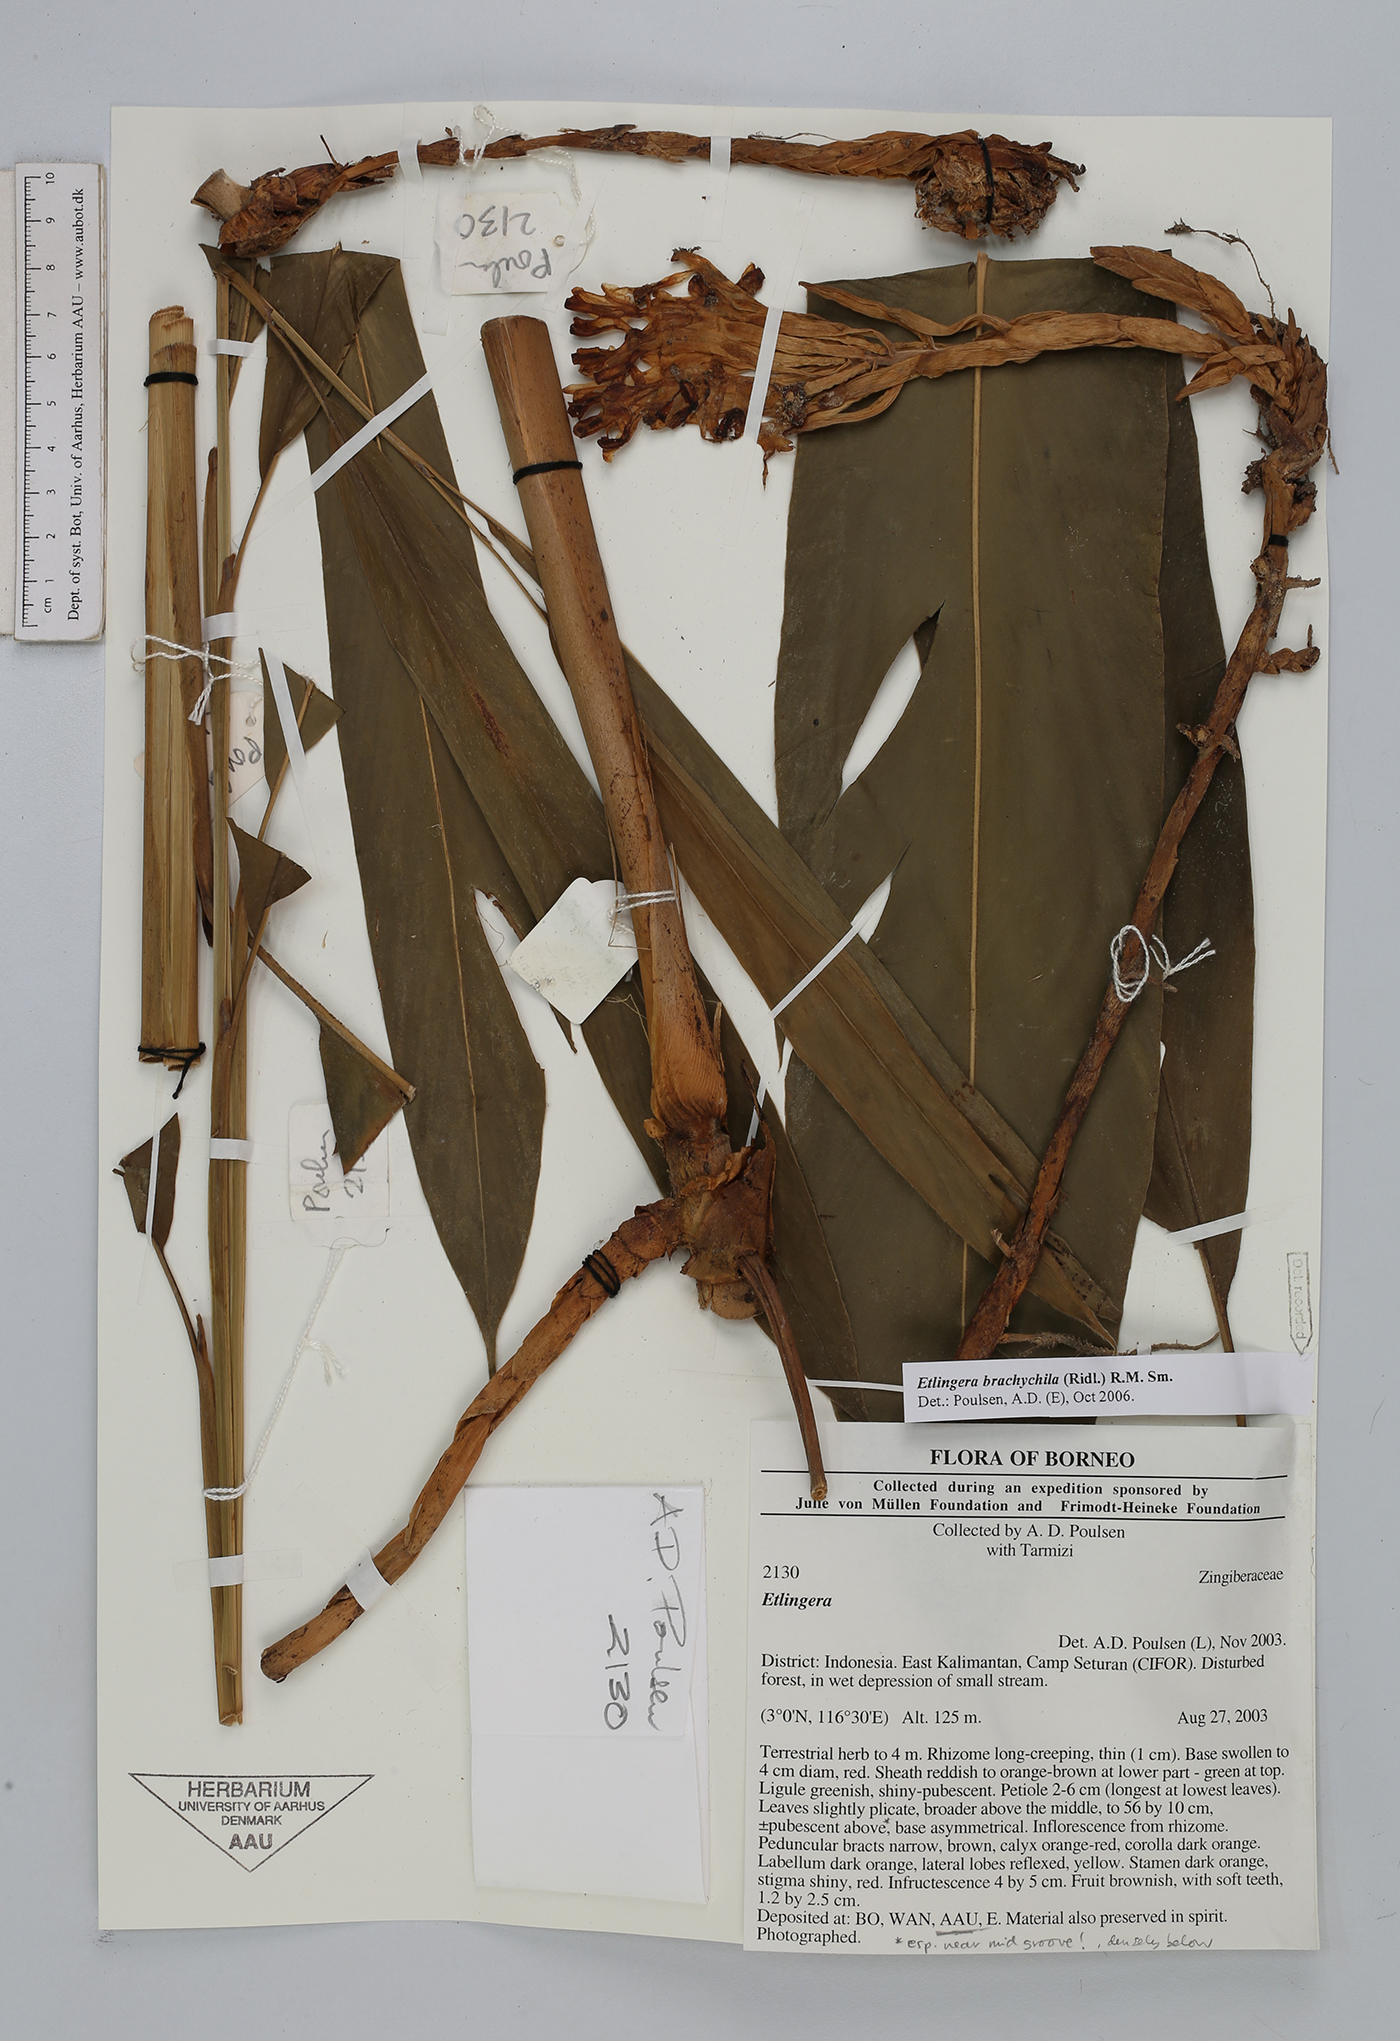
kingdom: Plantae
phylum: Tracheophyta
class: Liliopsida
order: Zingiberales
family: Zingiberaceae
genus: Etlingera
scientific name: Etlingera brachychila
